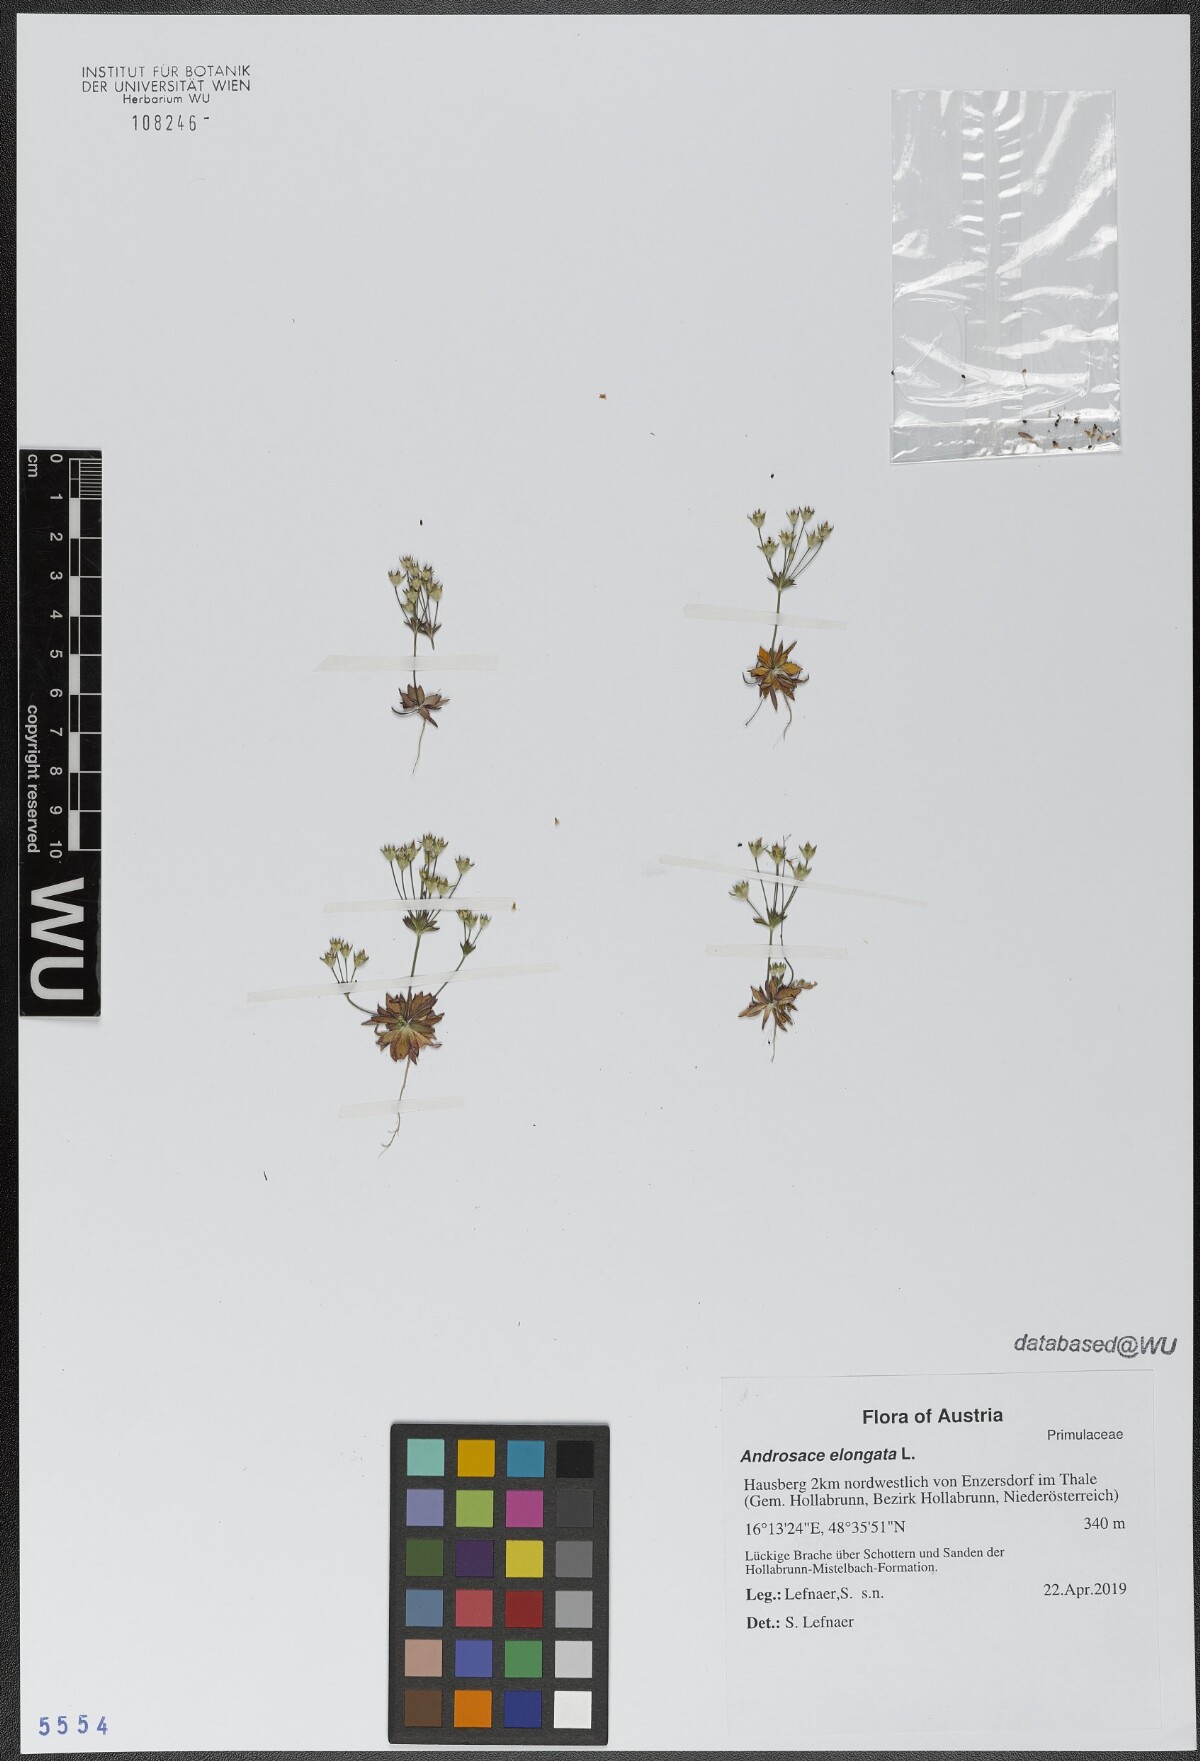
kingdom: Plantae
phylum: Tracheophyta
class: Magnoliopsida
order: Ericales
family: Primulaceae
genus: Androsace
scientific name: Androsace elongata
